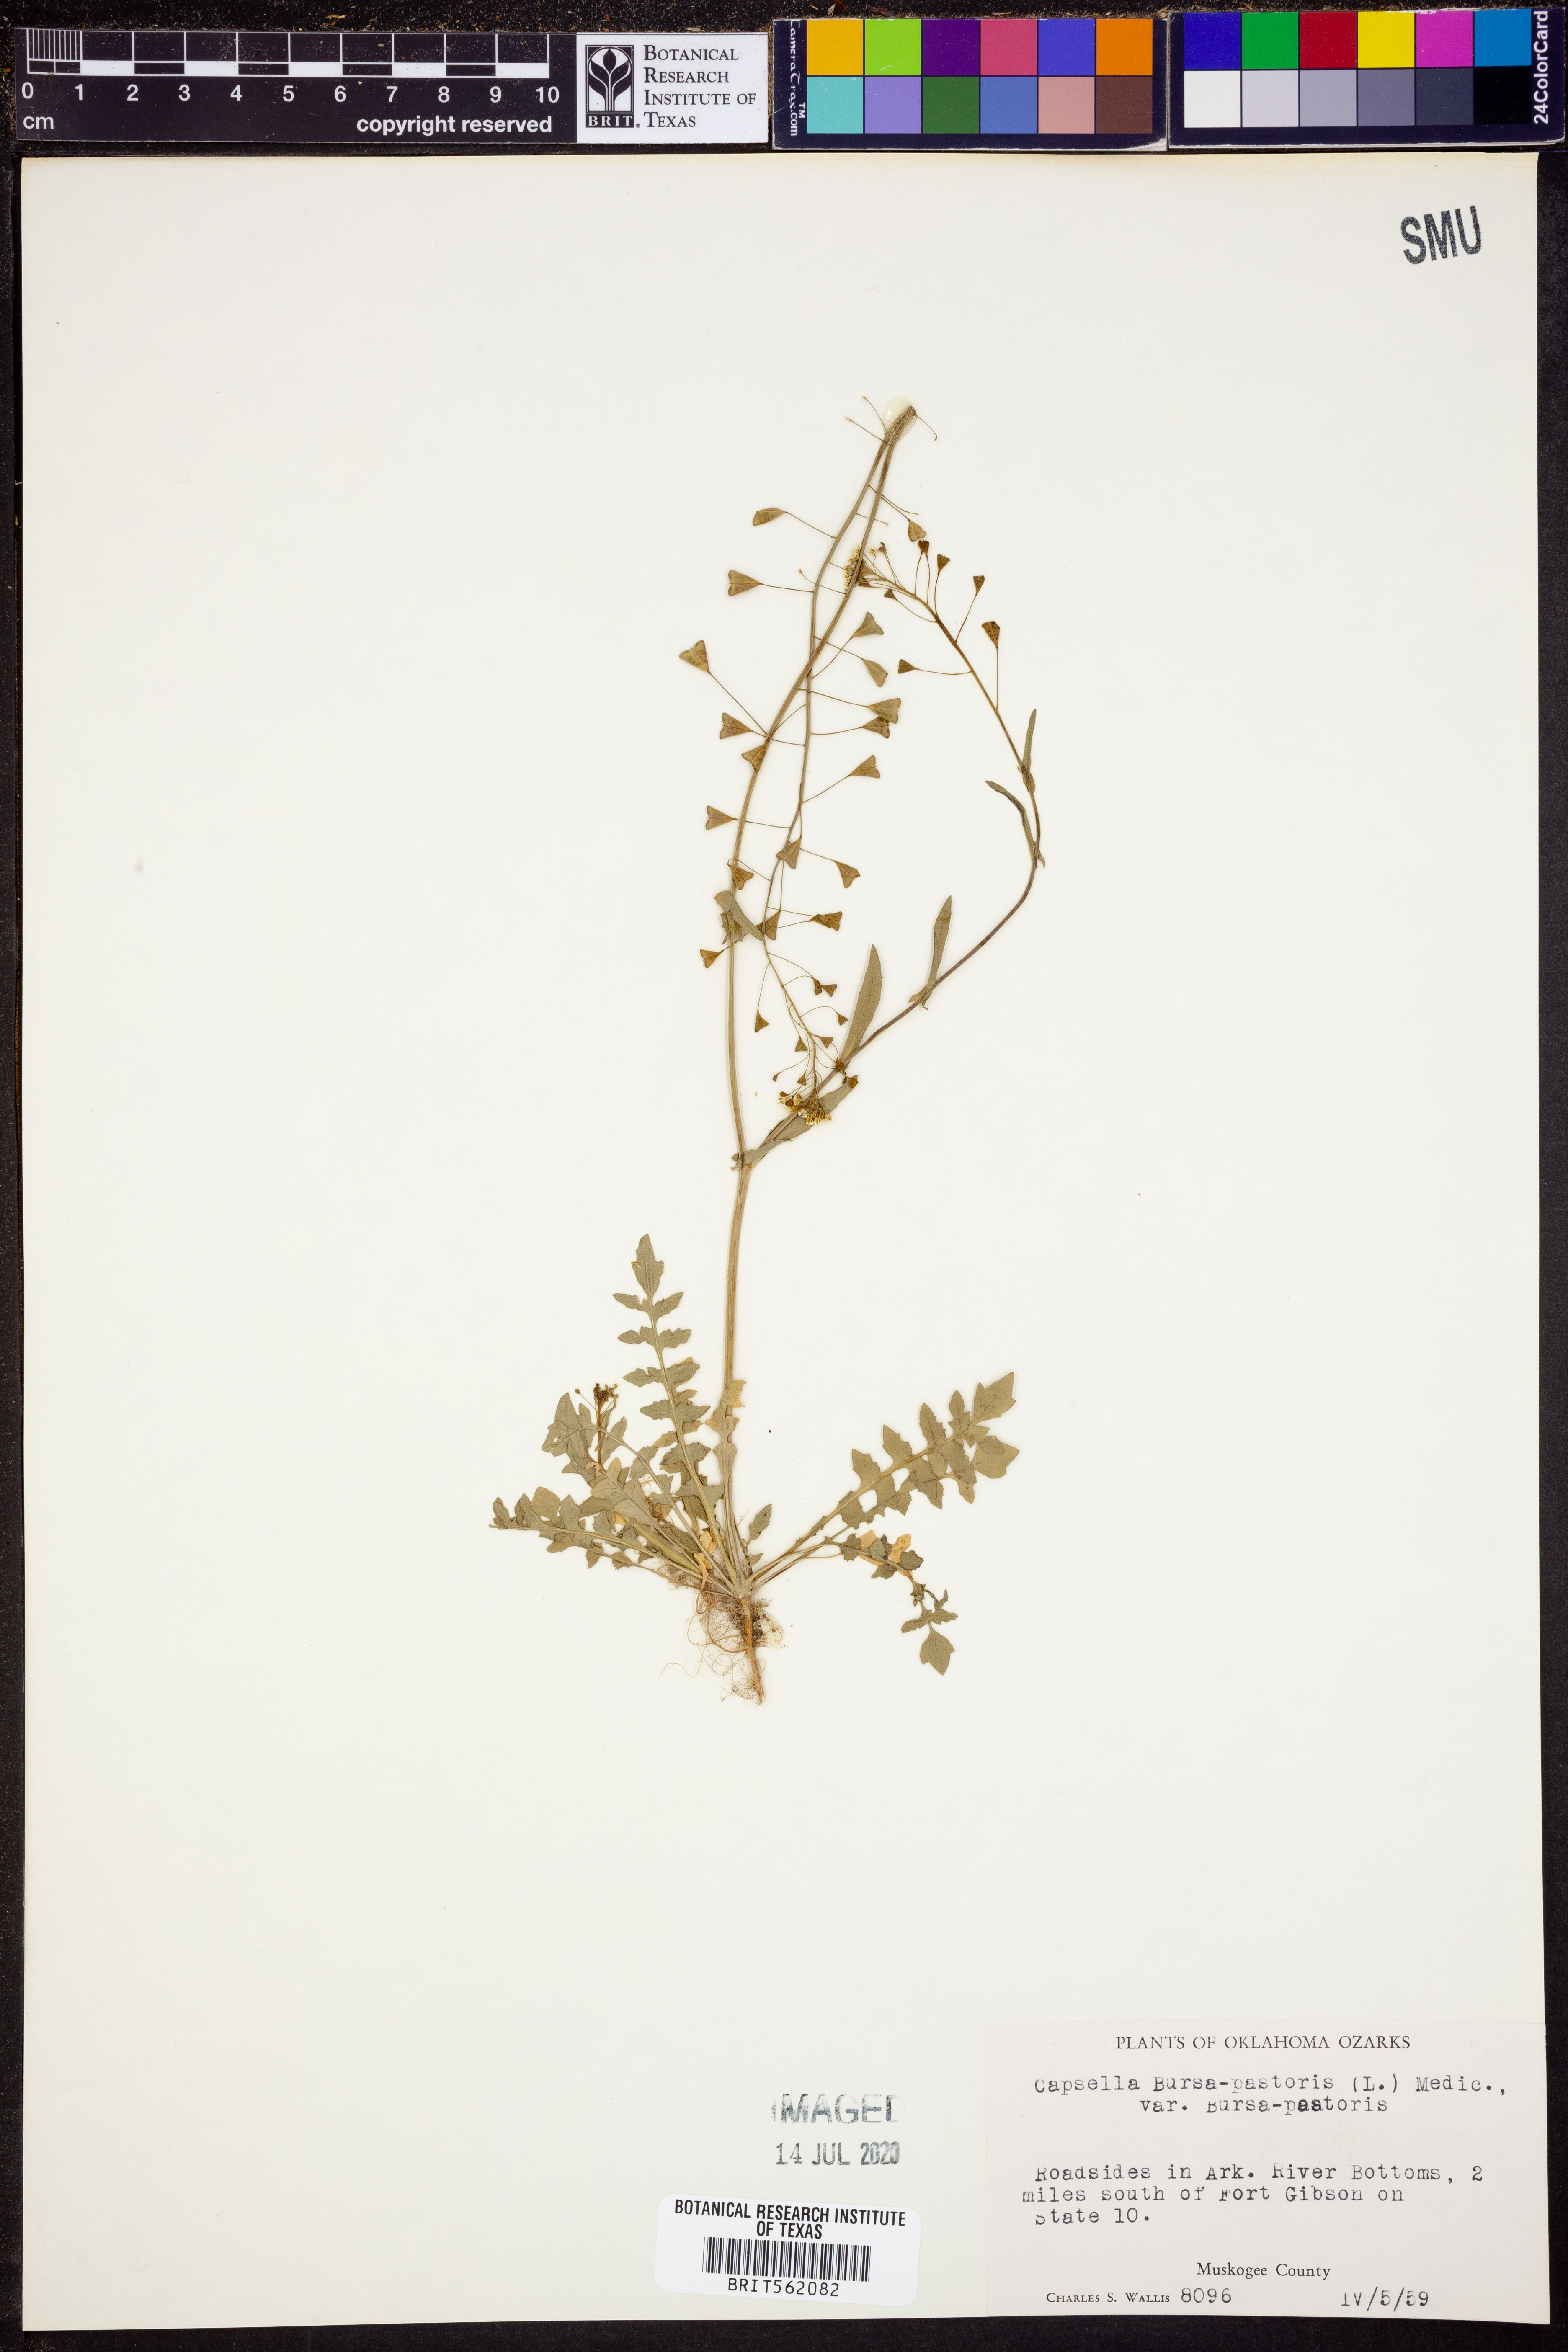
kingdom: Plantae
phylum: Tracheophyta
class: Magnoliopsida
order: Brassicales
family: Brassicaceae
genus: Capsella
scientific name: Capsella bursa-pastoris
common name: Shepherd's purse
